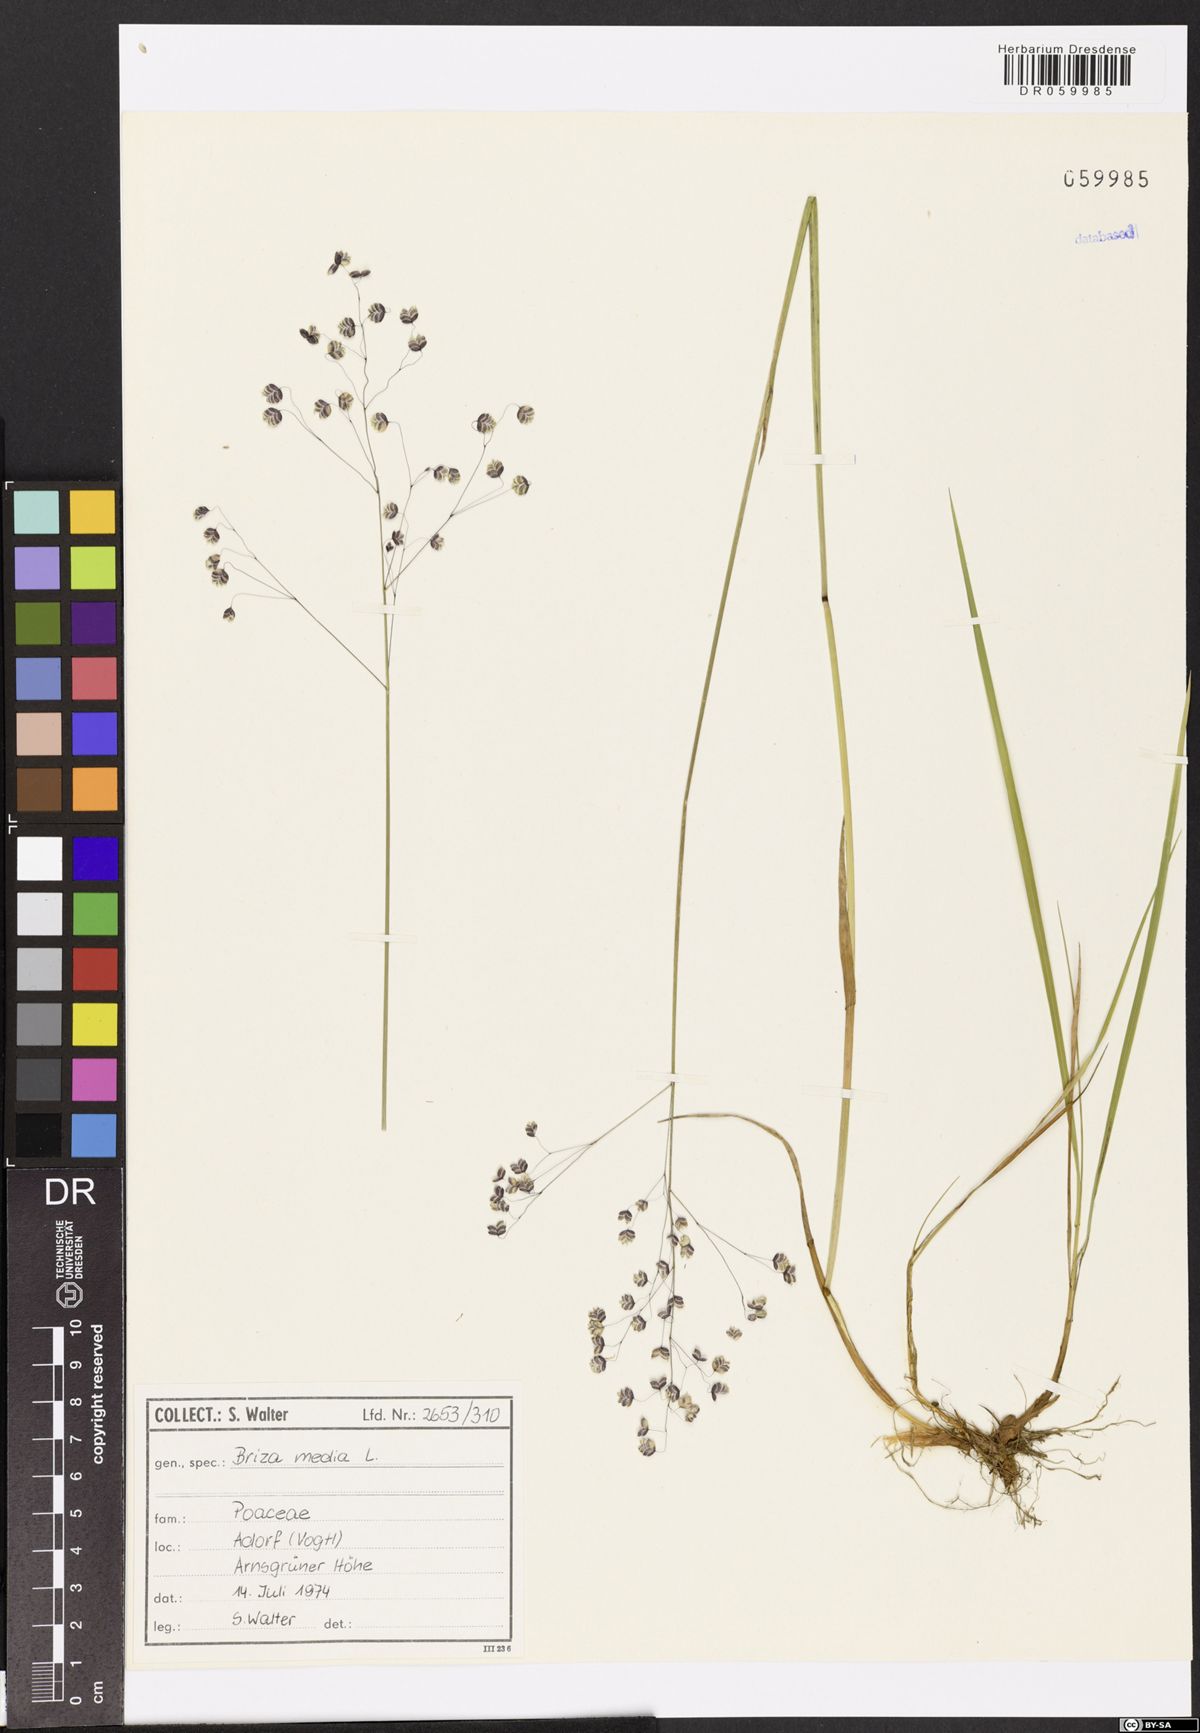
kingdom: Plantae
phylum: Tracheophyta
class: Liliopsida
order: Poales
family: Poaceae
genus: Briza
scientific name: Briza media
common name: Quaking grass
